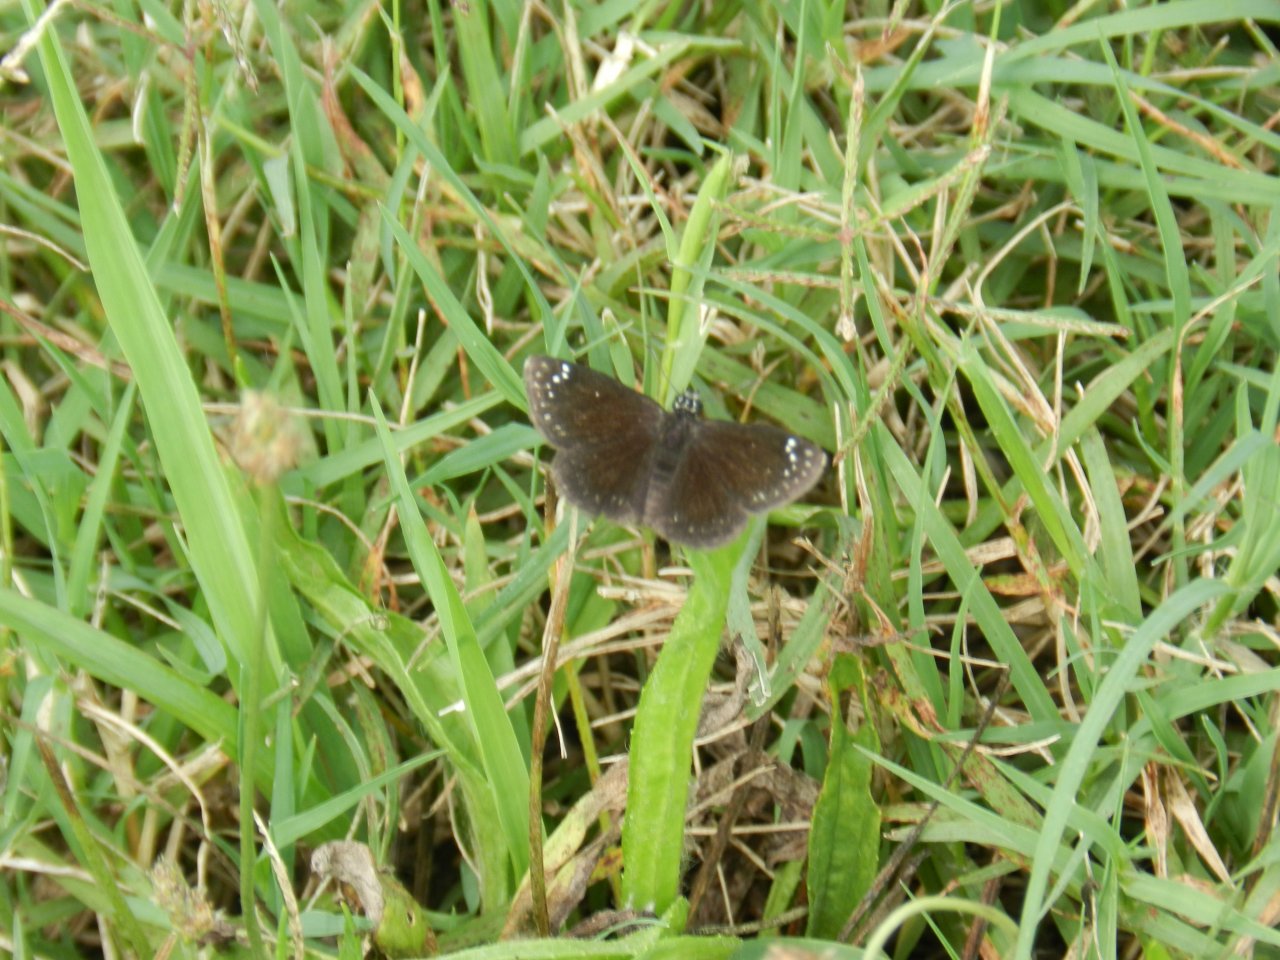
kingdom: Animalia
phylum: Arthropoda
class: Insecta
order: Lepidoptera
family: Hesperiidae
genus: Pholisora
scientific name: Pholisora catullus
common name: Common Sootywing
